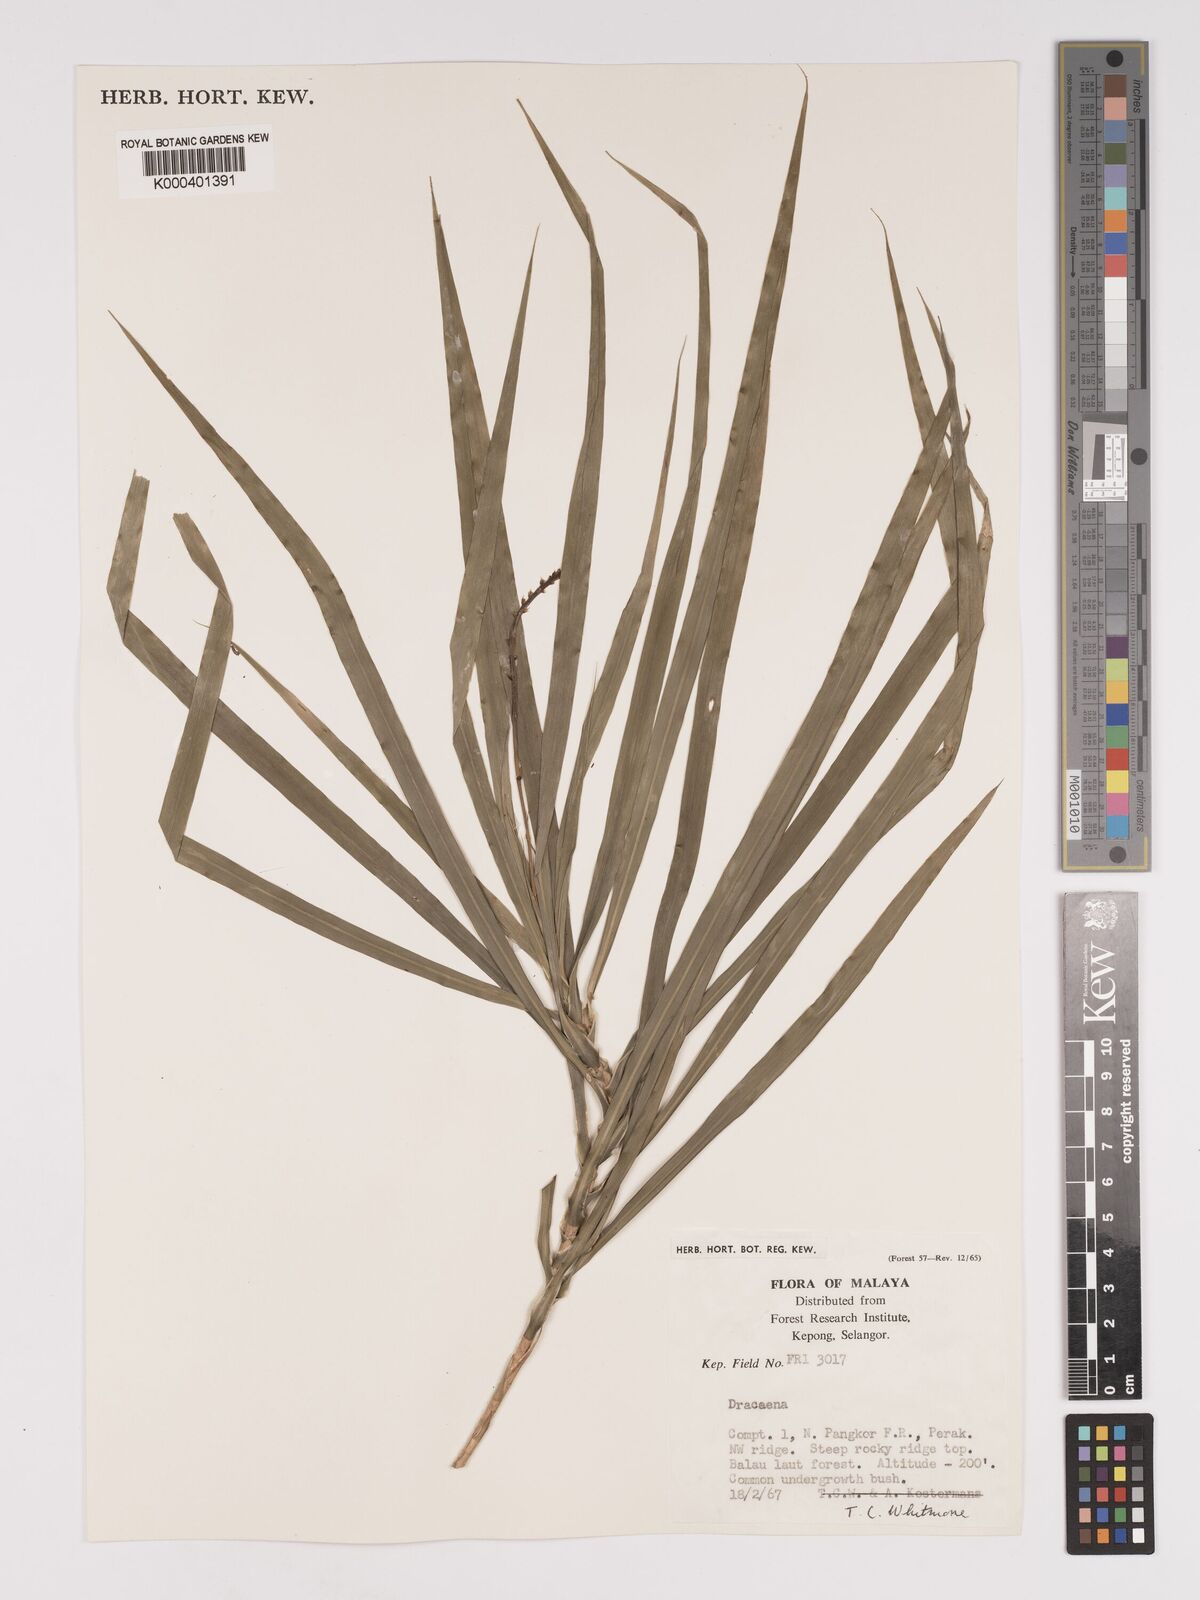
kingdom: Plantae
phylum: Tracheophyta
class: Liliopsida
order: Asparagales
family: Asparagaceae
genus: Dracaena
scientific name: Dracaena
